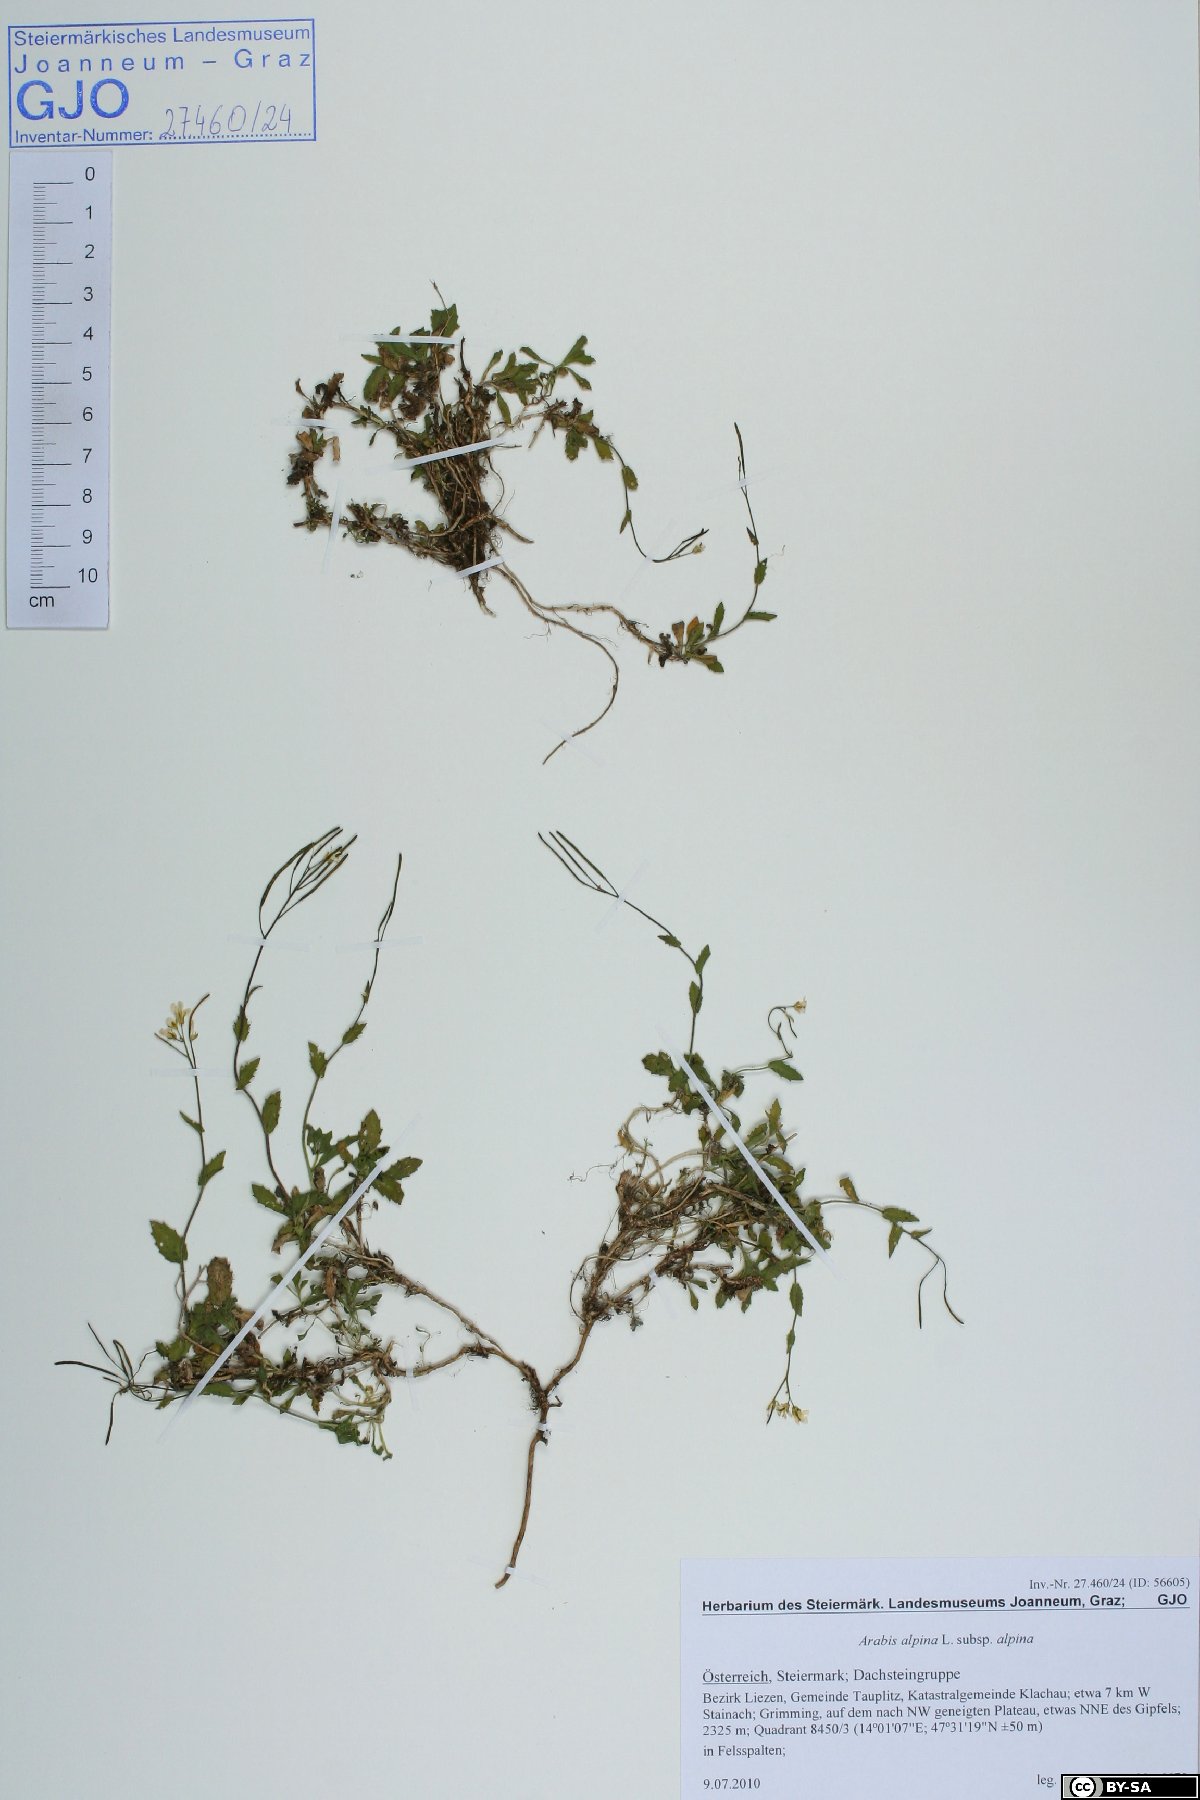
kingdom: Plantae
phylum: Tracheophyta
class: Magnoliopsida
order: Brassicales
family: Brassicaceae
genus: Arabis
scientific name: Arabis alpina
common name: Alpine rock-cress
